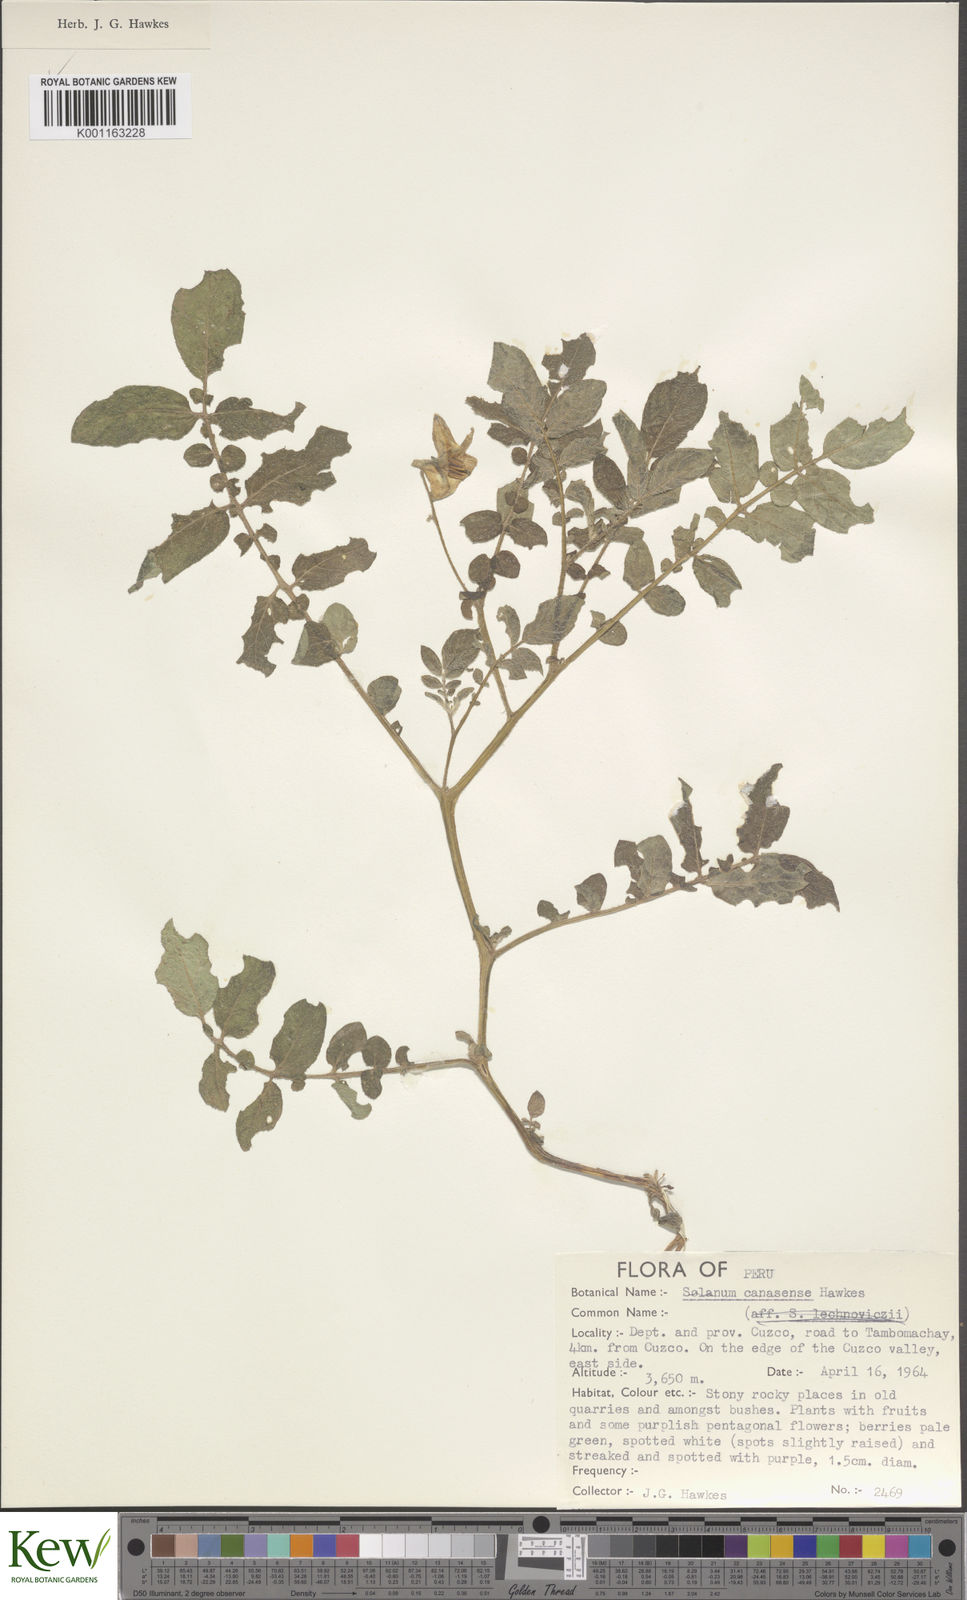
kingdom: Plantae
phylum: Tracheophyta
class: Magnoliopsida
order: Solanales
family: Solanaceae
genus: Solanum
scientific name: Solanum candolleanum
